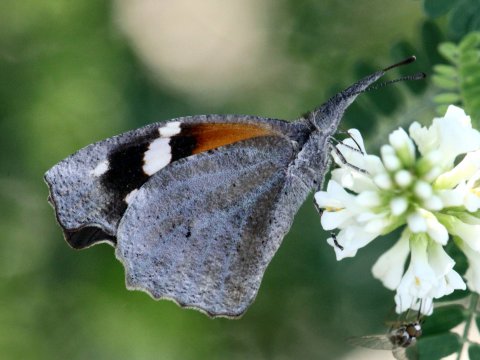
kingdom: Animalia
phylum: Arthropoda
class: Insecta
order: Lepidoptera
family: Nymphalidae
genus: Libytheana
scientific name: Libytheana carinenta
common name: American Snout
